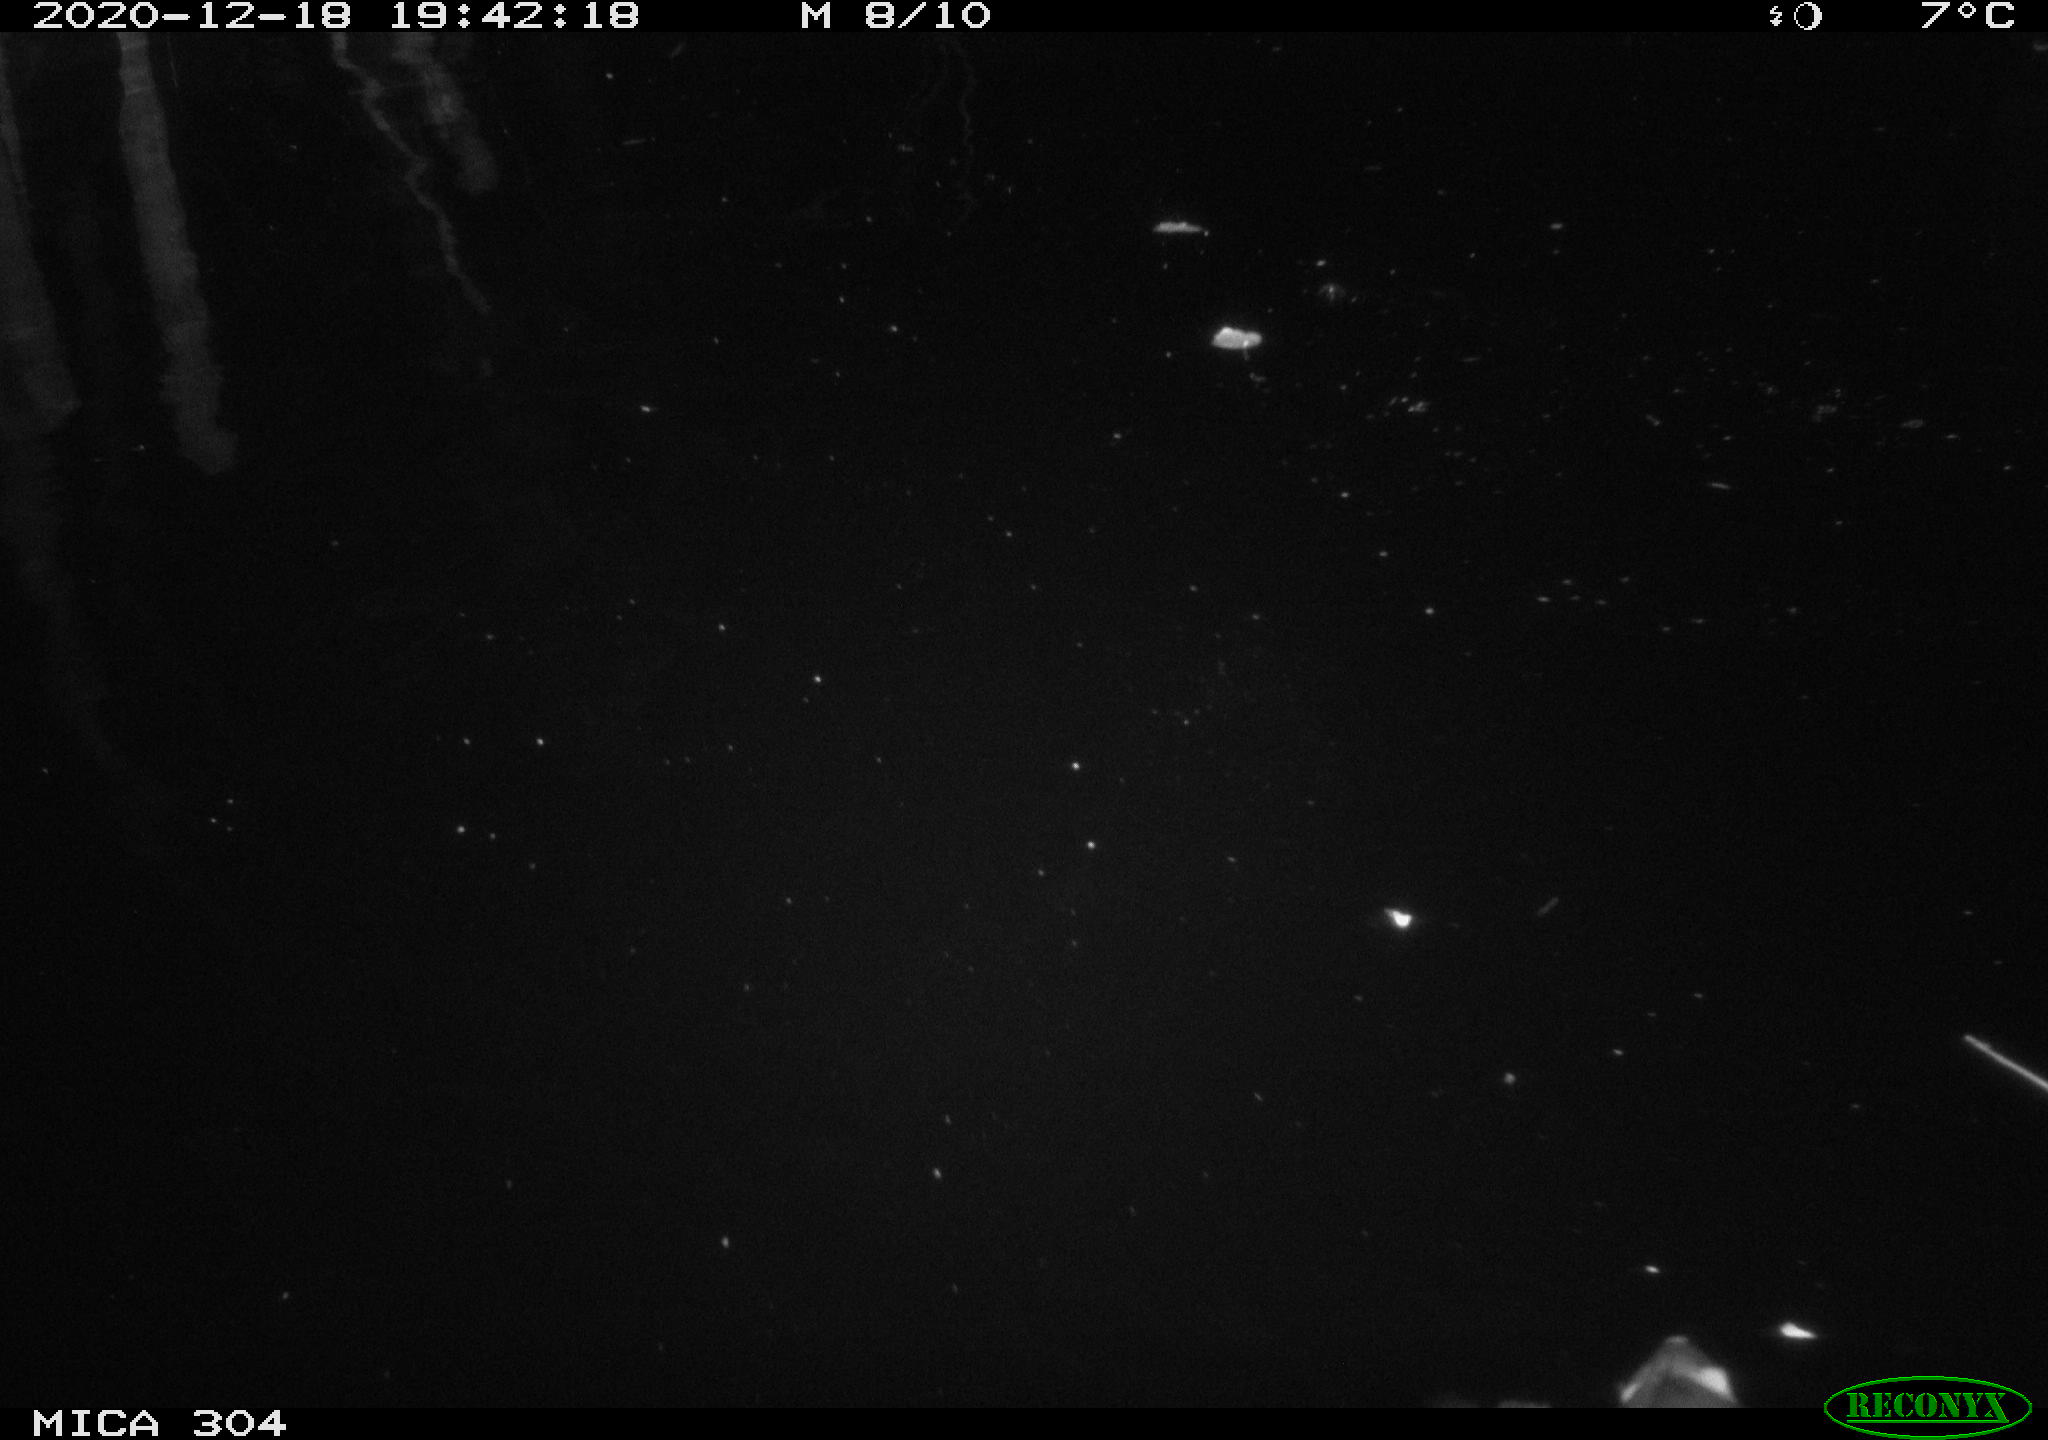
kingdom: Animalia
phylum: Chordata
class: Aves
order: Gruiformes
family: Rallidae
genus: Gallinula
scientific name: Gallinula chloropus
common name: Common moorhen
